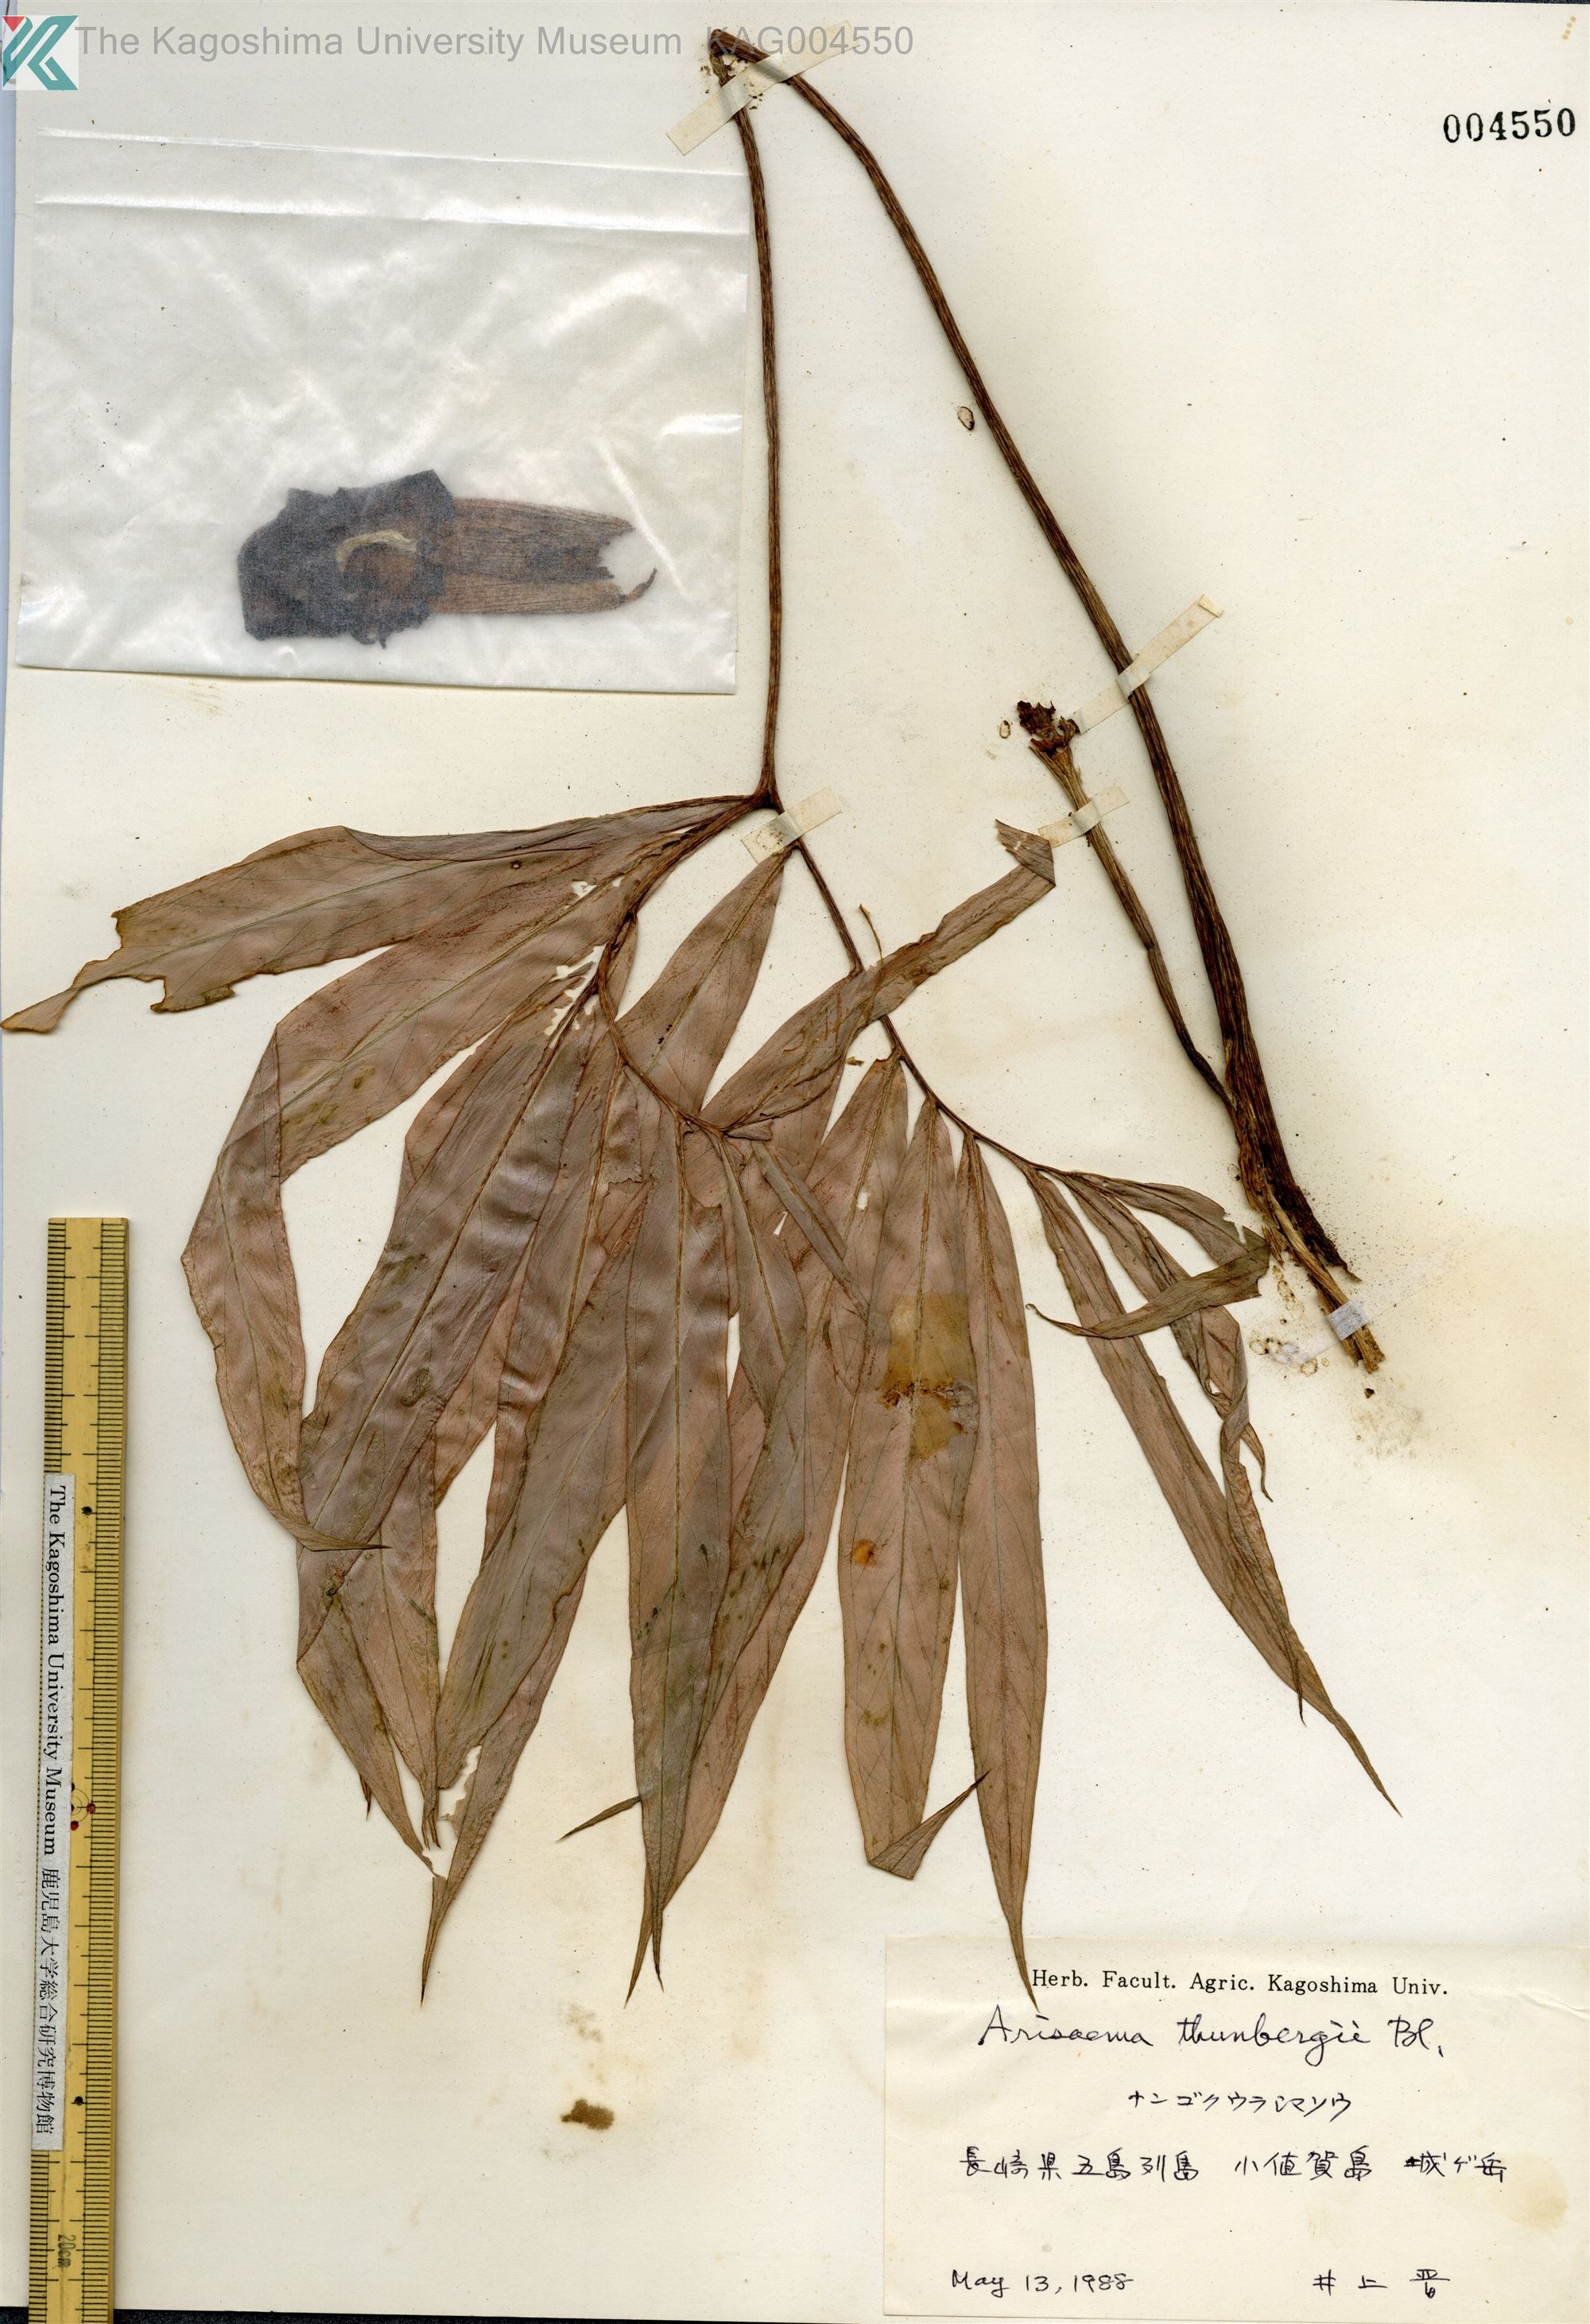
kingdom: Plantae
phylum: Tracheophyta
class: Liliopsida
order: Alismatales
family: Araceae
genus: Arisaema
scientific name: Arisaema thunbergii
